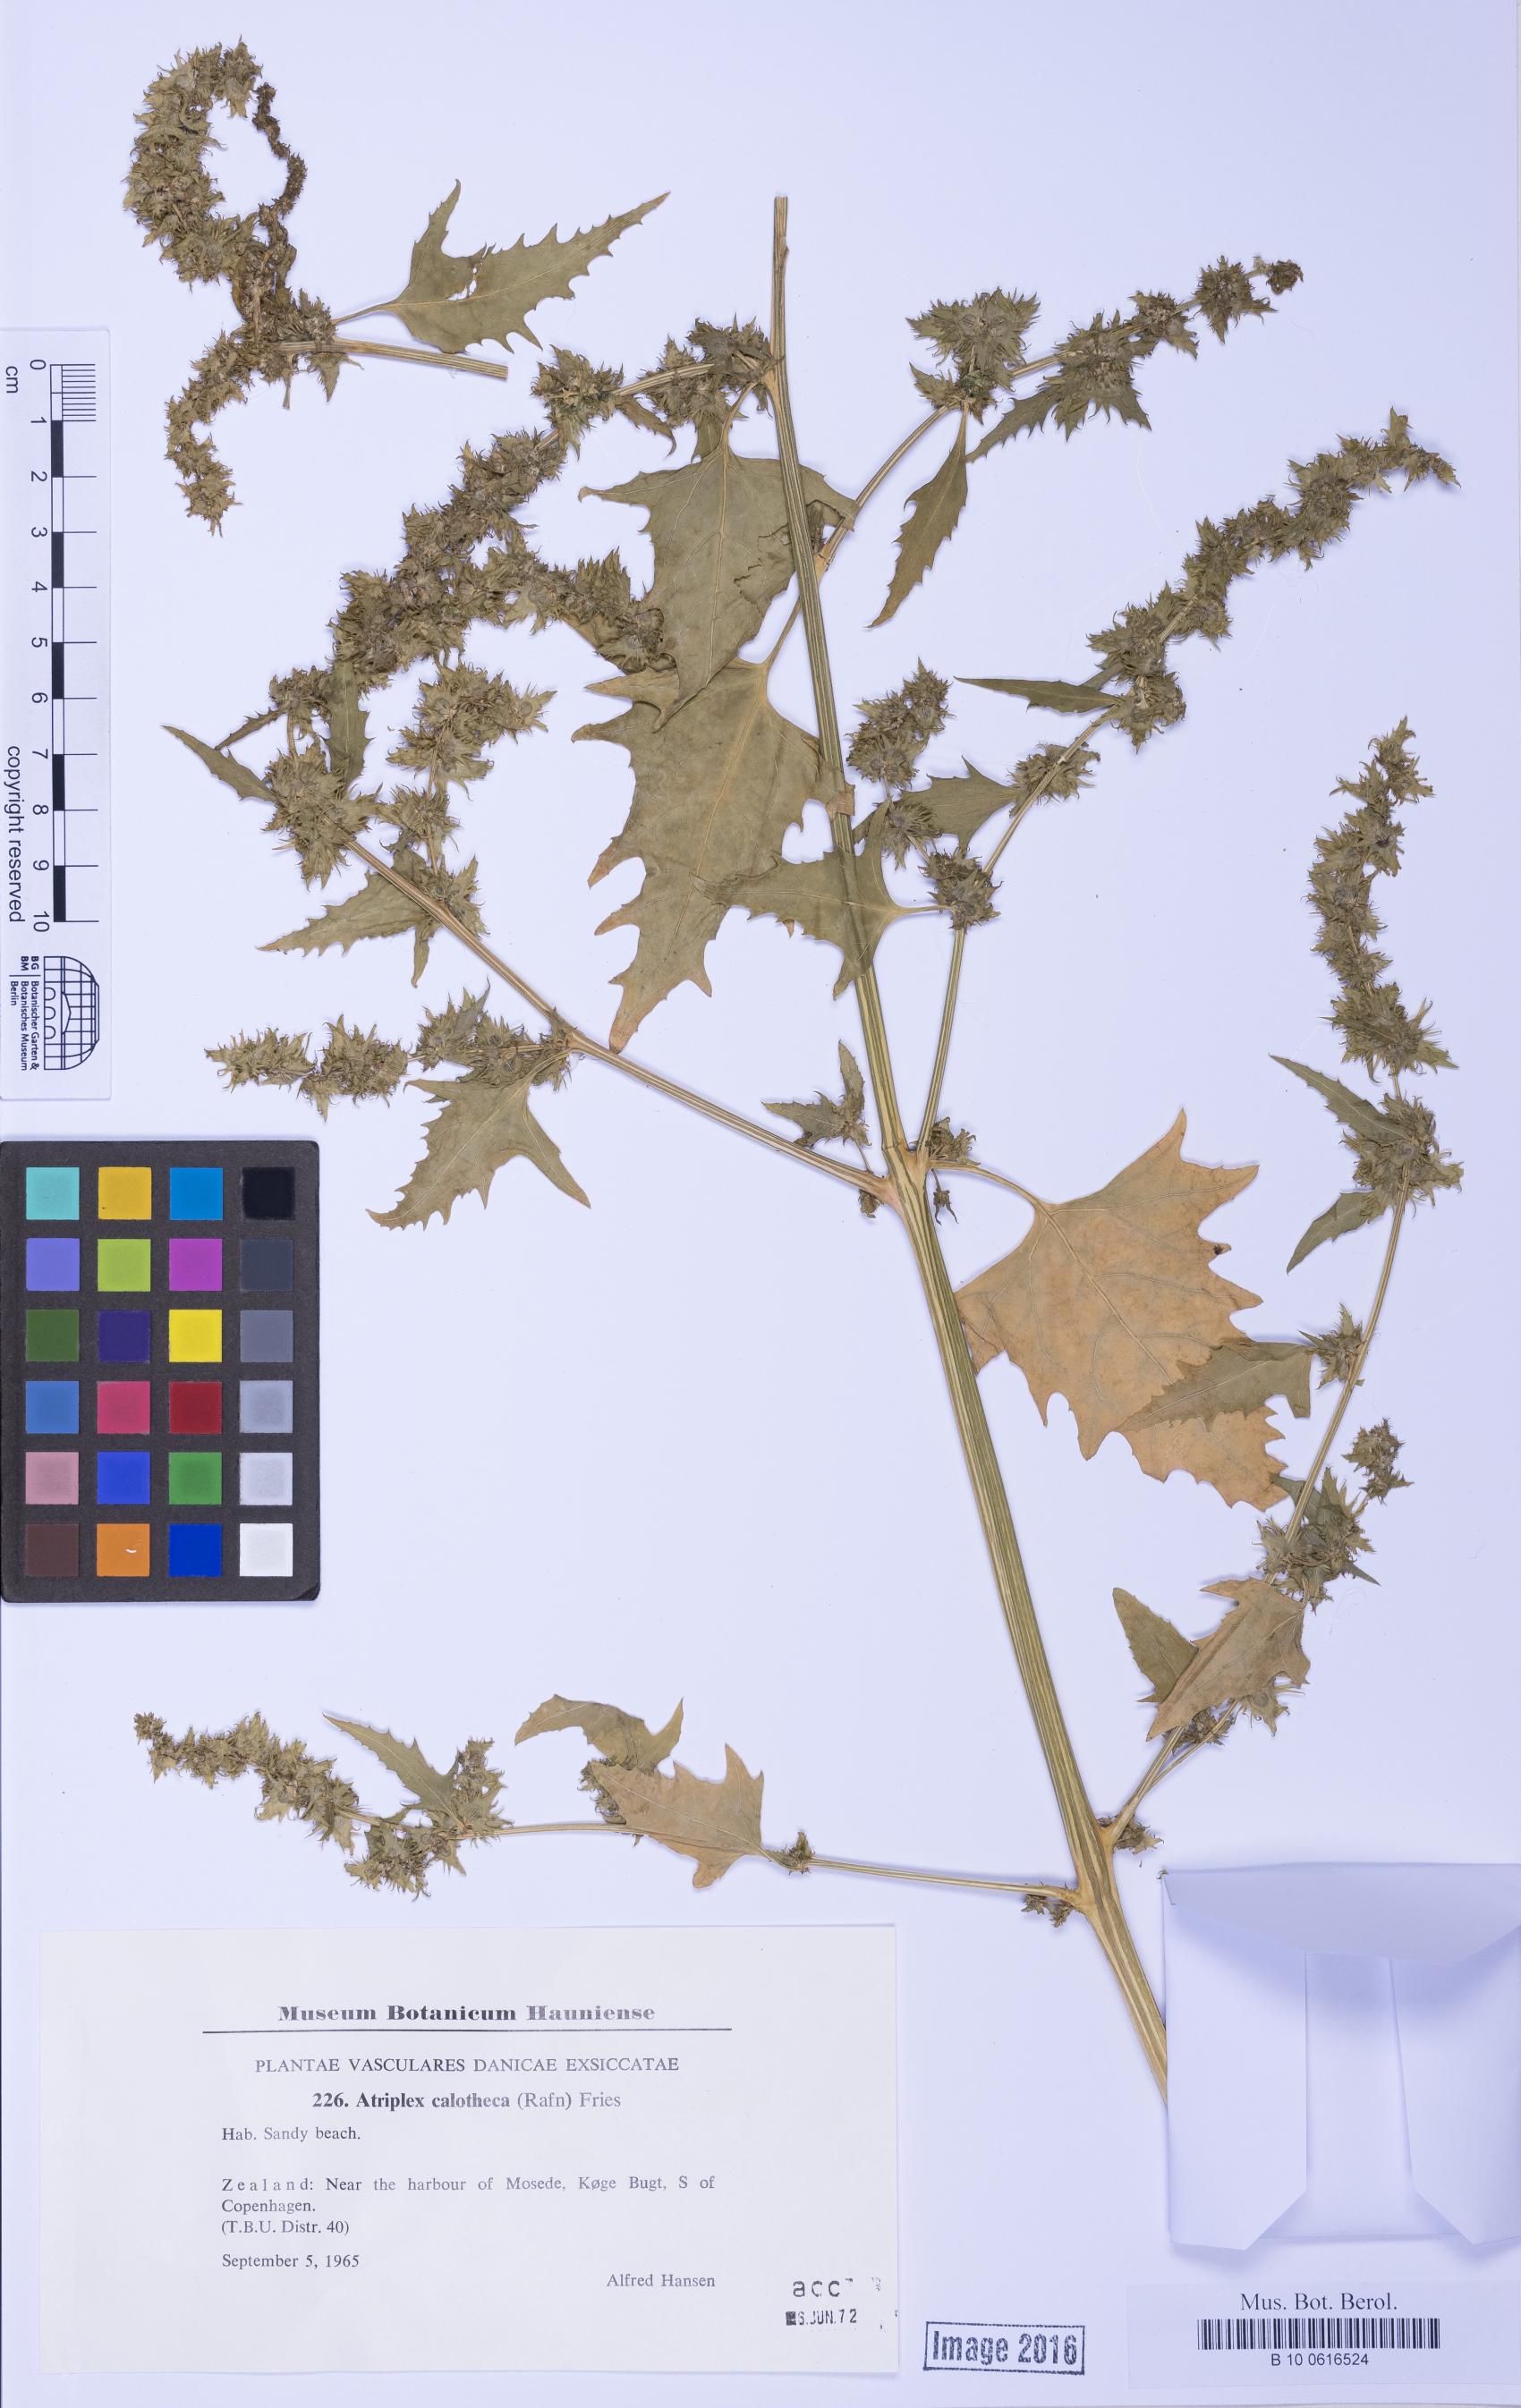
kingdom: Plantae
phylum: Tracheophyta
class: Magnoliopsida
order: Caryophyllales
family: Amaranthaceae
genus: Atriplex
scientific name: Atriplex calotheca
